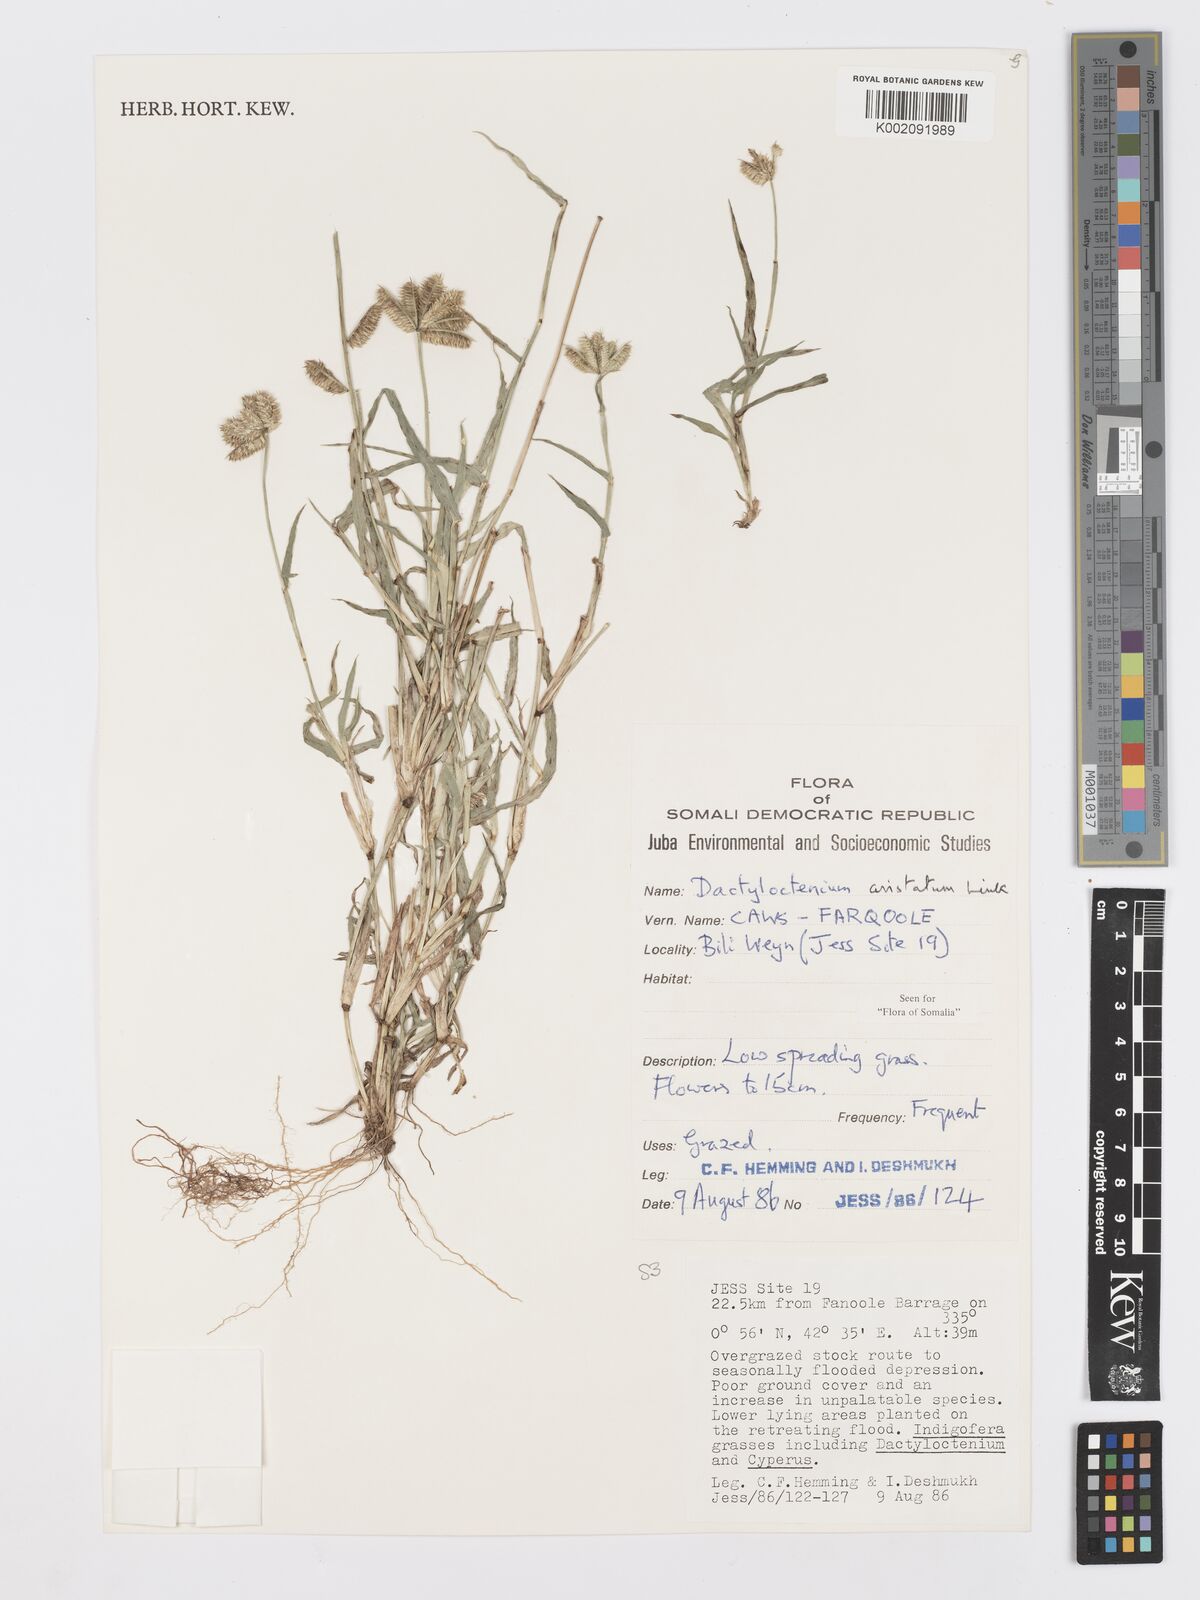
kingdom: Plantae
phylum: Tracheophyta
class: Liliopsida
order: Poales
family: Poaceae
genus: Dactyloctenium
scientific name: Dactyloctenium aristatum
